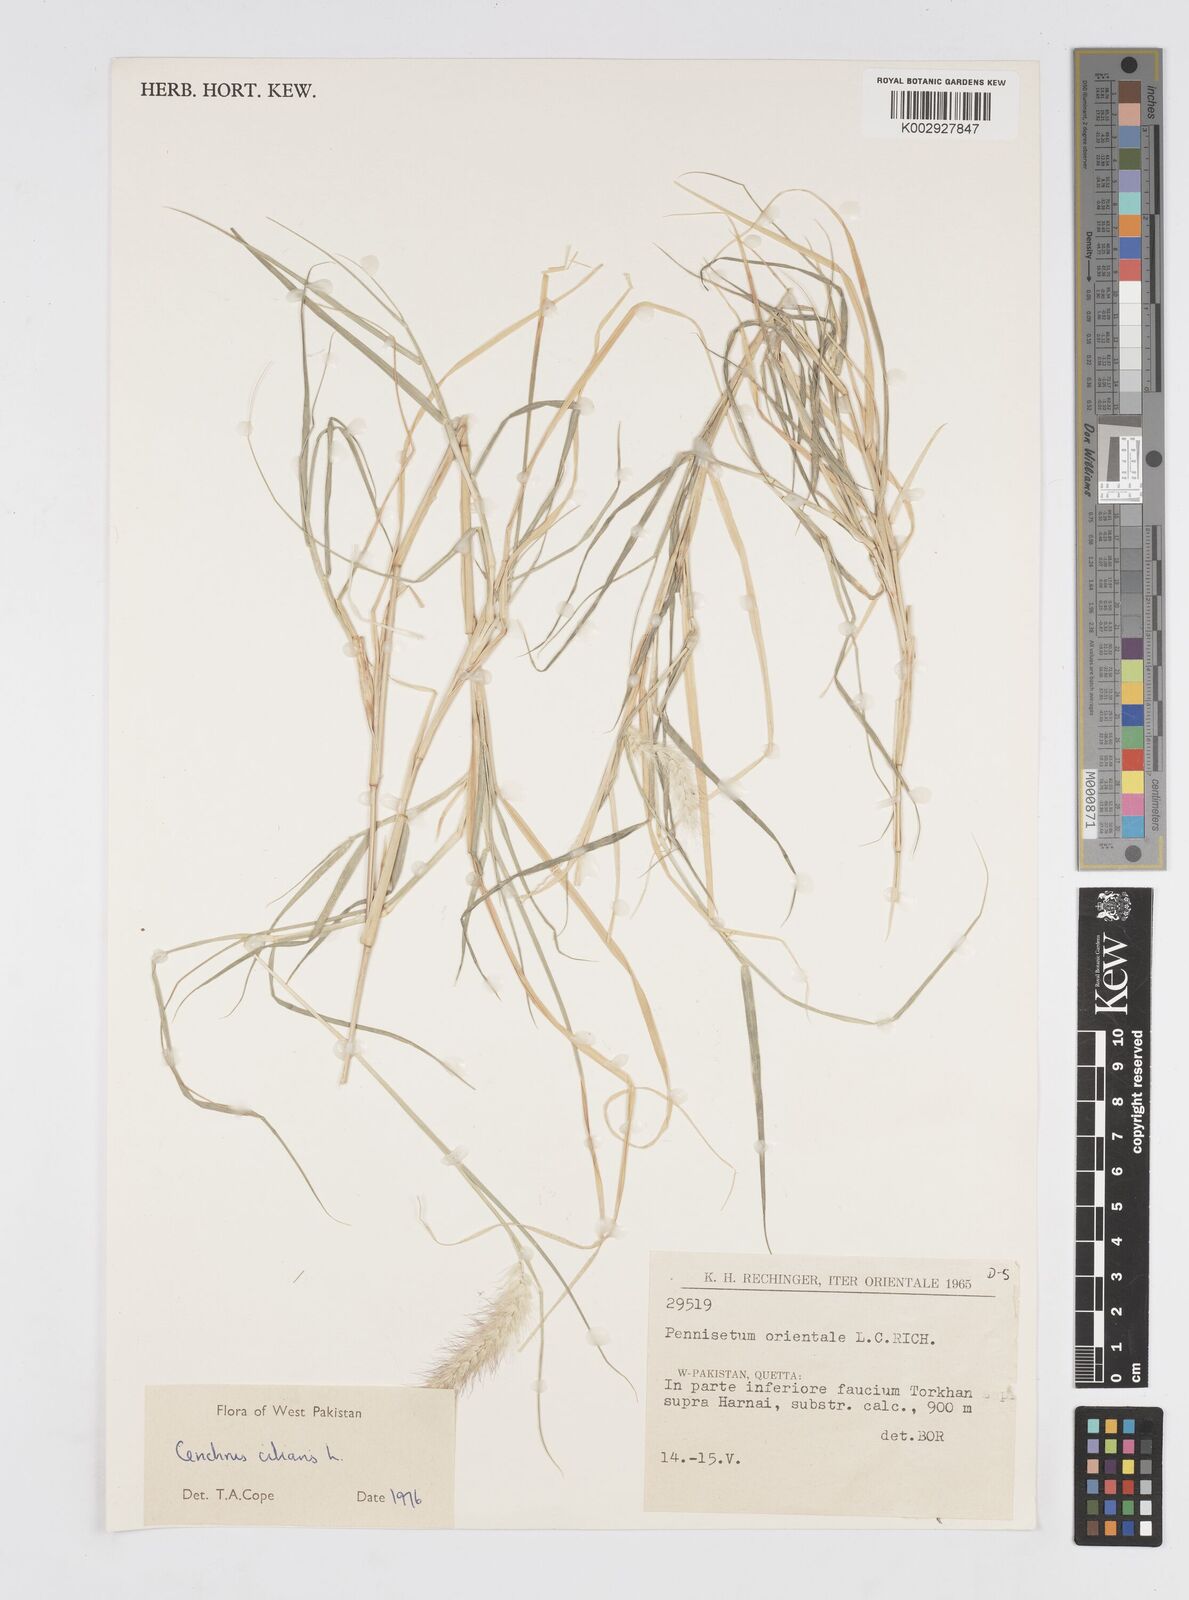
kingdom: Plantae
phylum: Tracheophyta
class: Liliopsida
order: Poales
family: Poaceae
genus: Cenchrus
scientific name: Cenchrus ciliaris
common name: Buffelgrass
